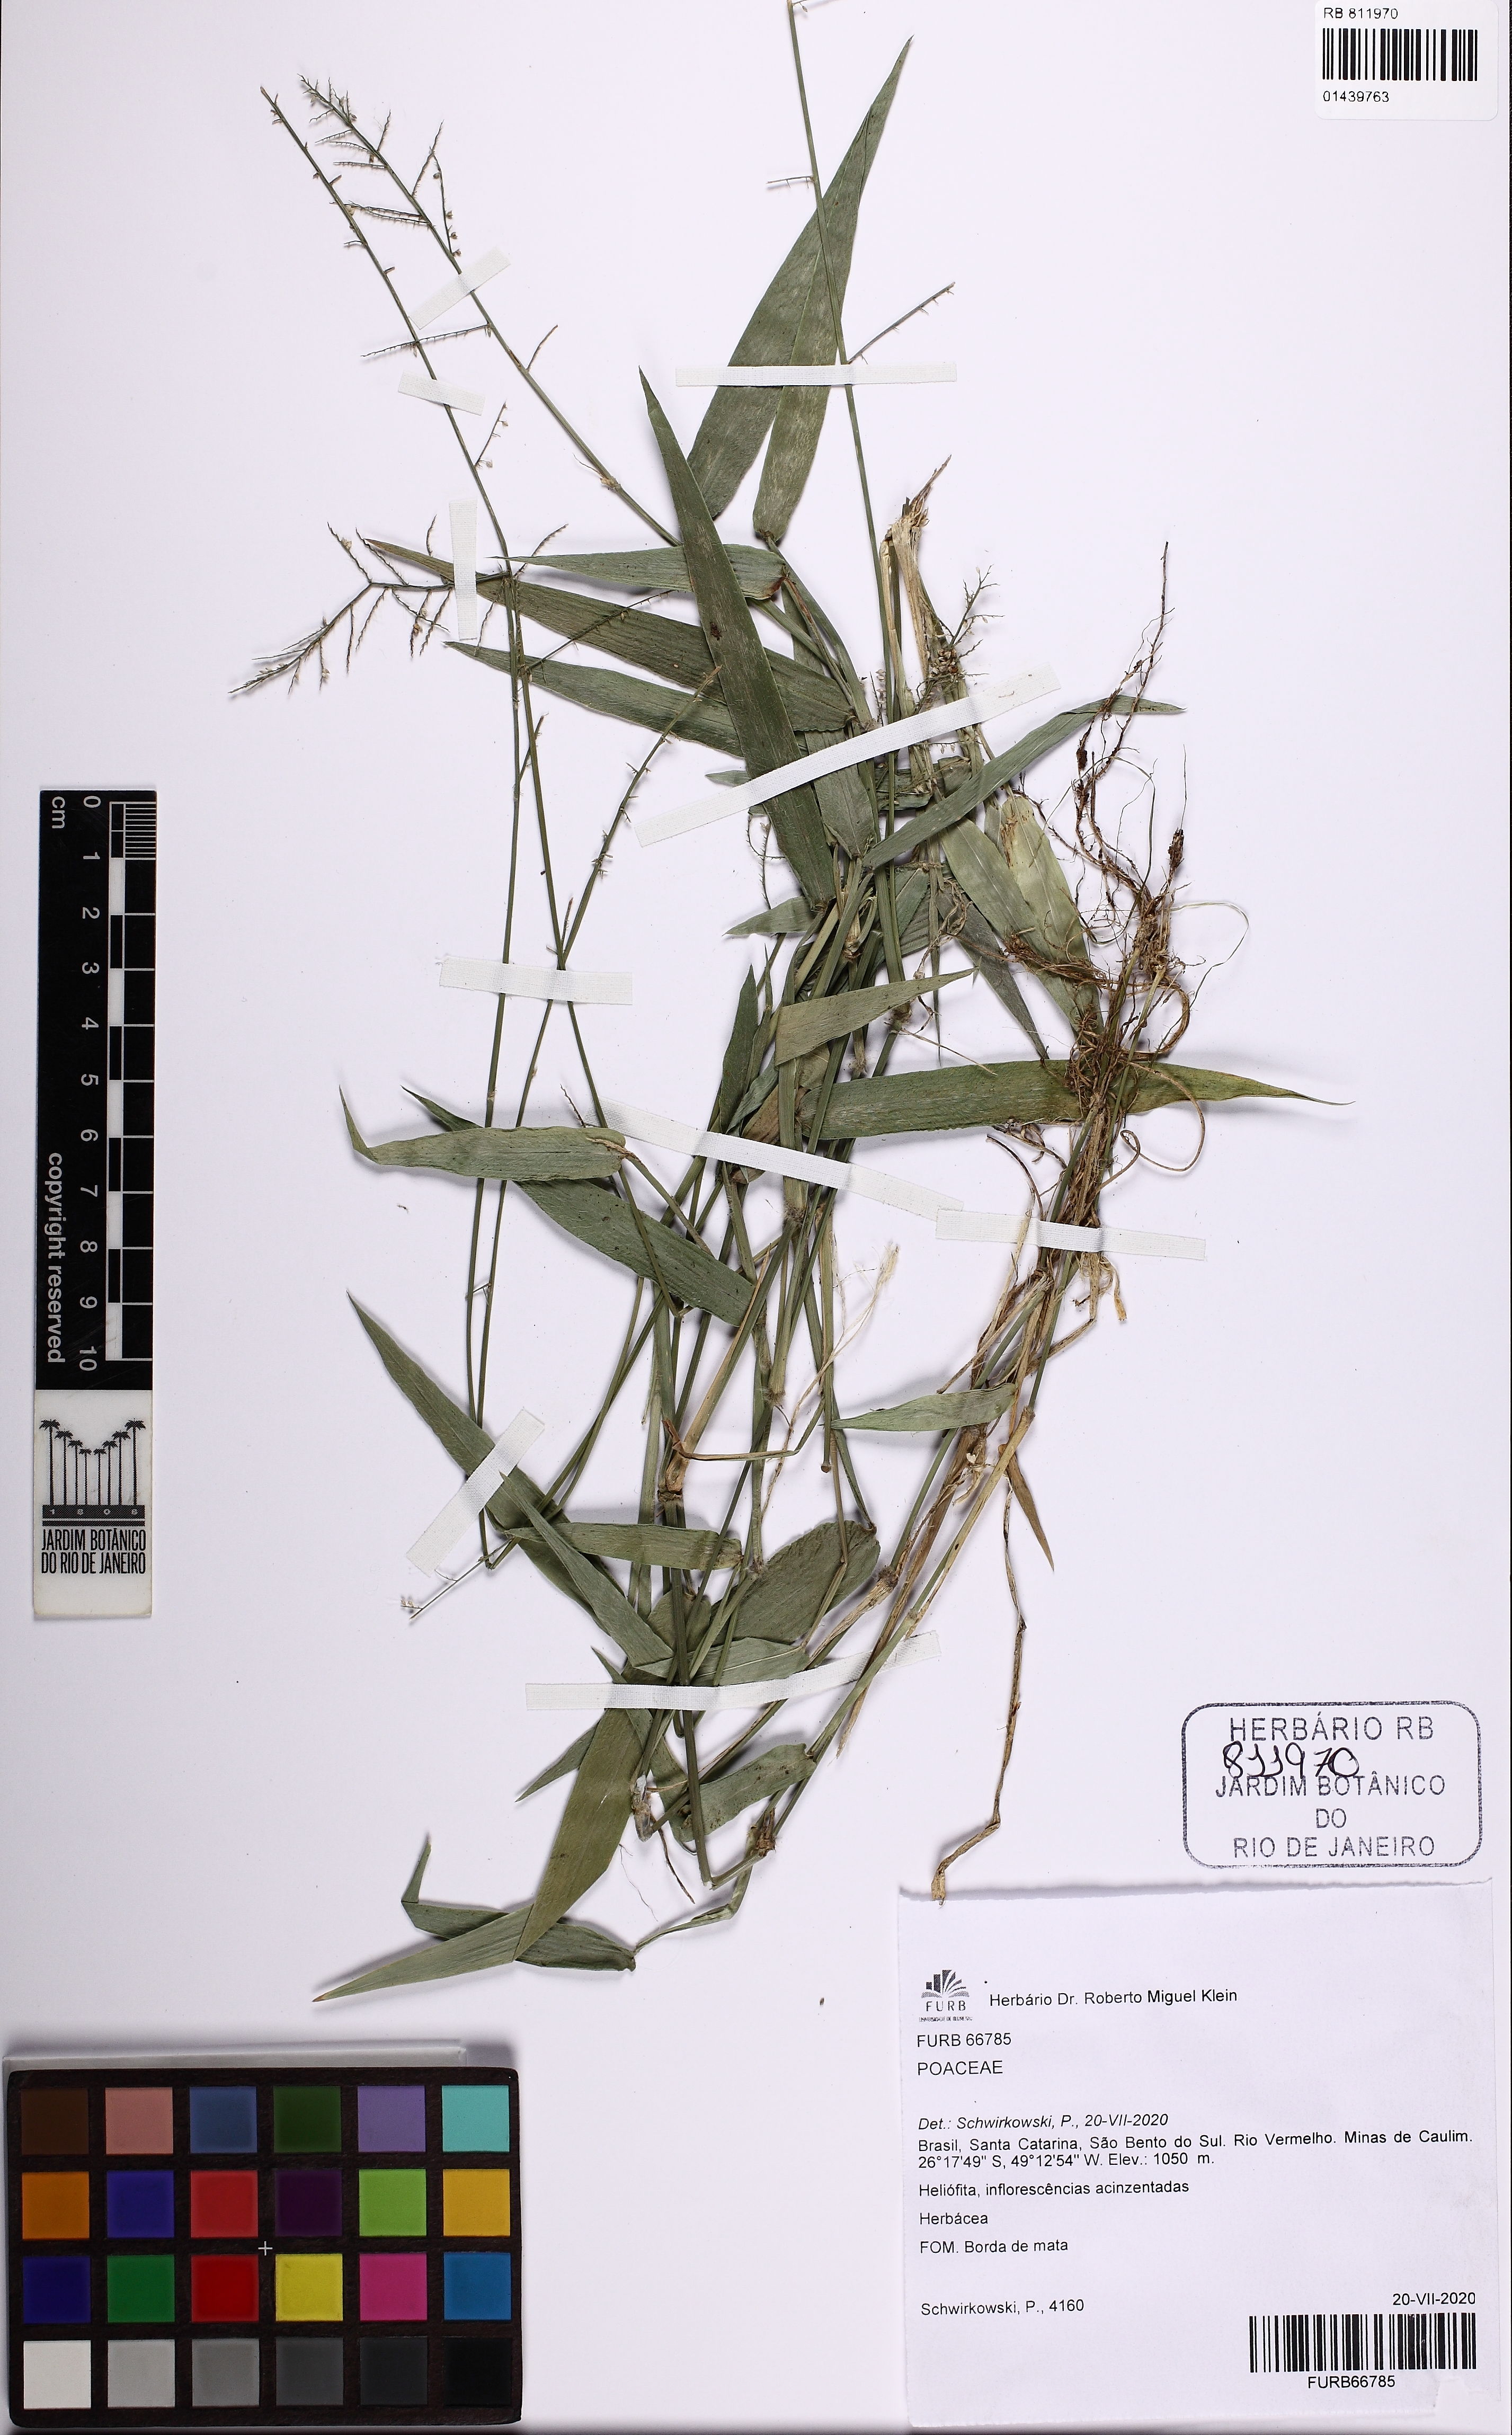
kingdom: Plantae
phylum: Tracheophyta
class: Liliopsida
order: Poales
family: Poaceae
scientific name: Poaceae
